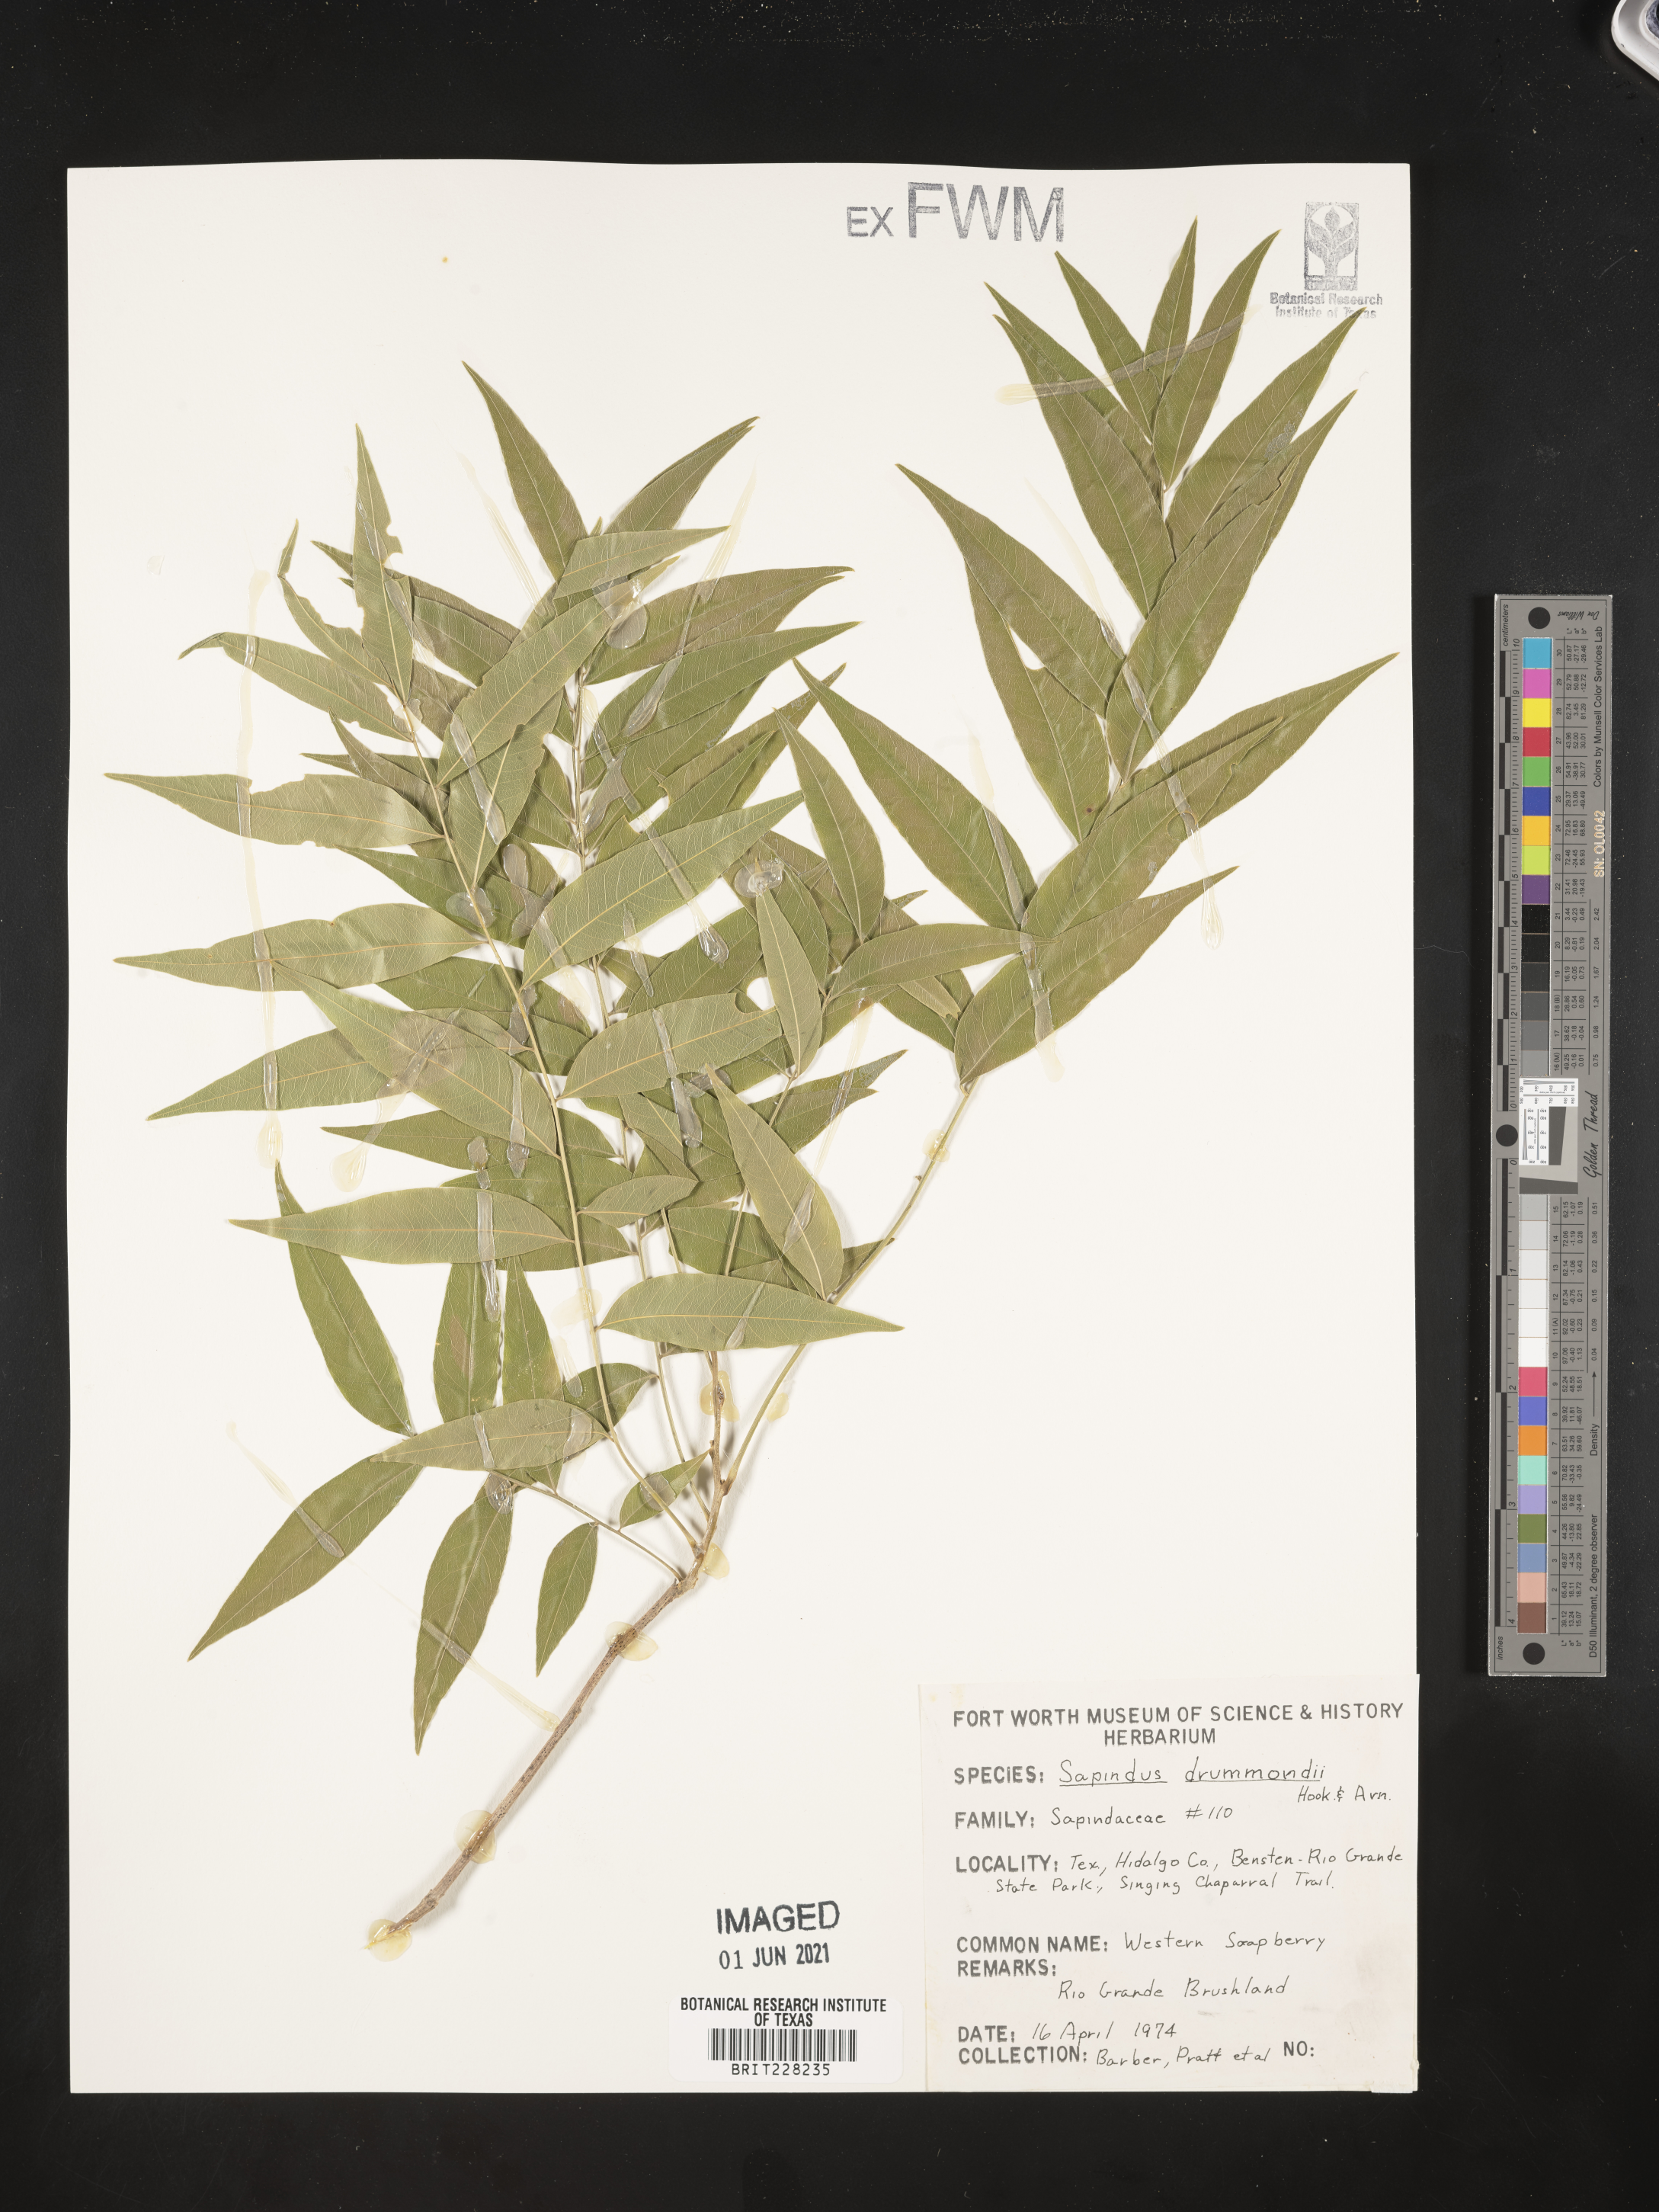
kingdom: Plantae
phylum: Tracheophyta
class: Magnoliopsida
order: Sapindales
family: Sapindaceae
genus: Sapindus
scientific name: Sapindus drummondii
